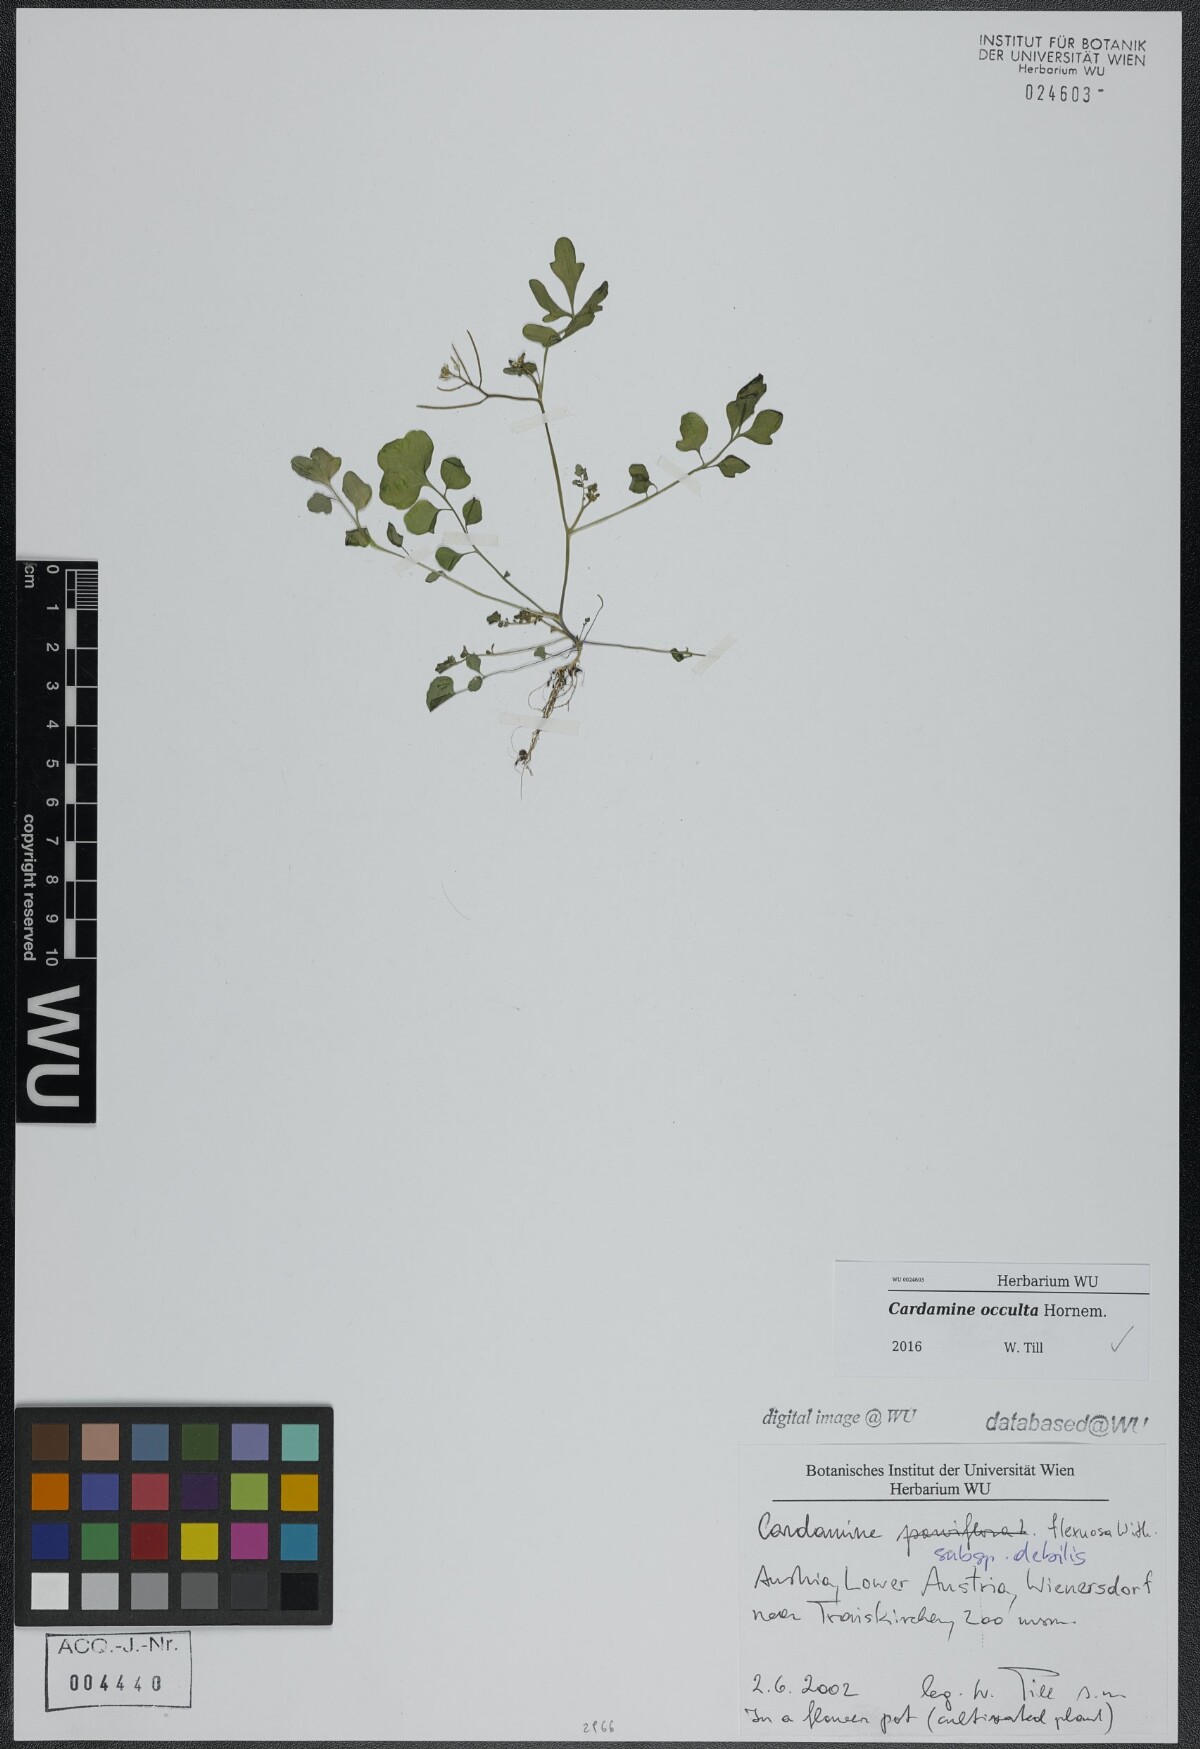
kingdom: Plantae
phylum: Tracheophyta
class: Magnoliopsida
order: Brassicales
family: Brassicaceae
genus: Cardamine
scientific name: Cardamine occulta
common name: Asian wavy bittercress
